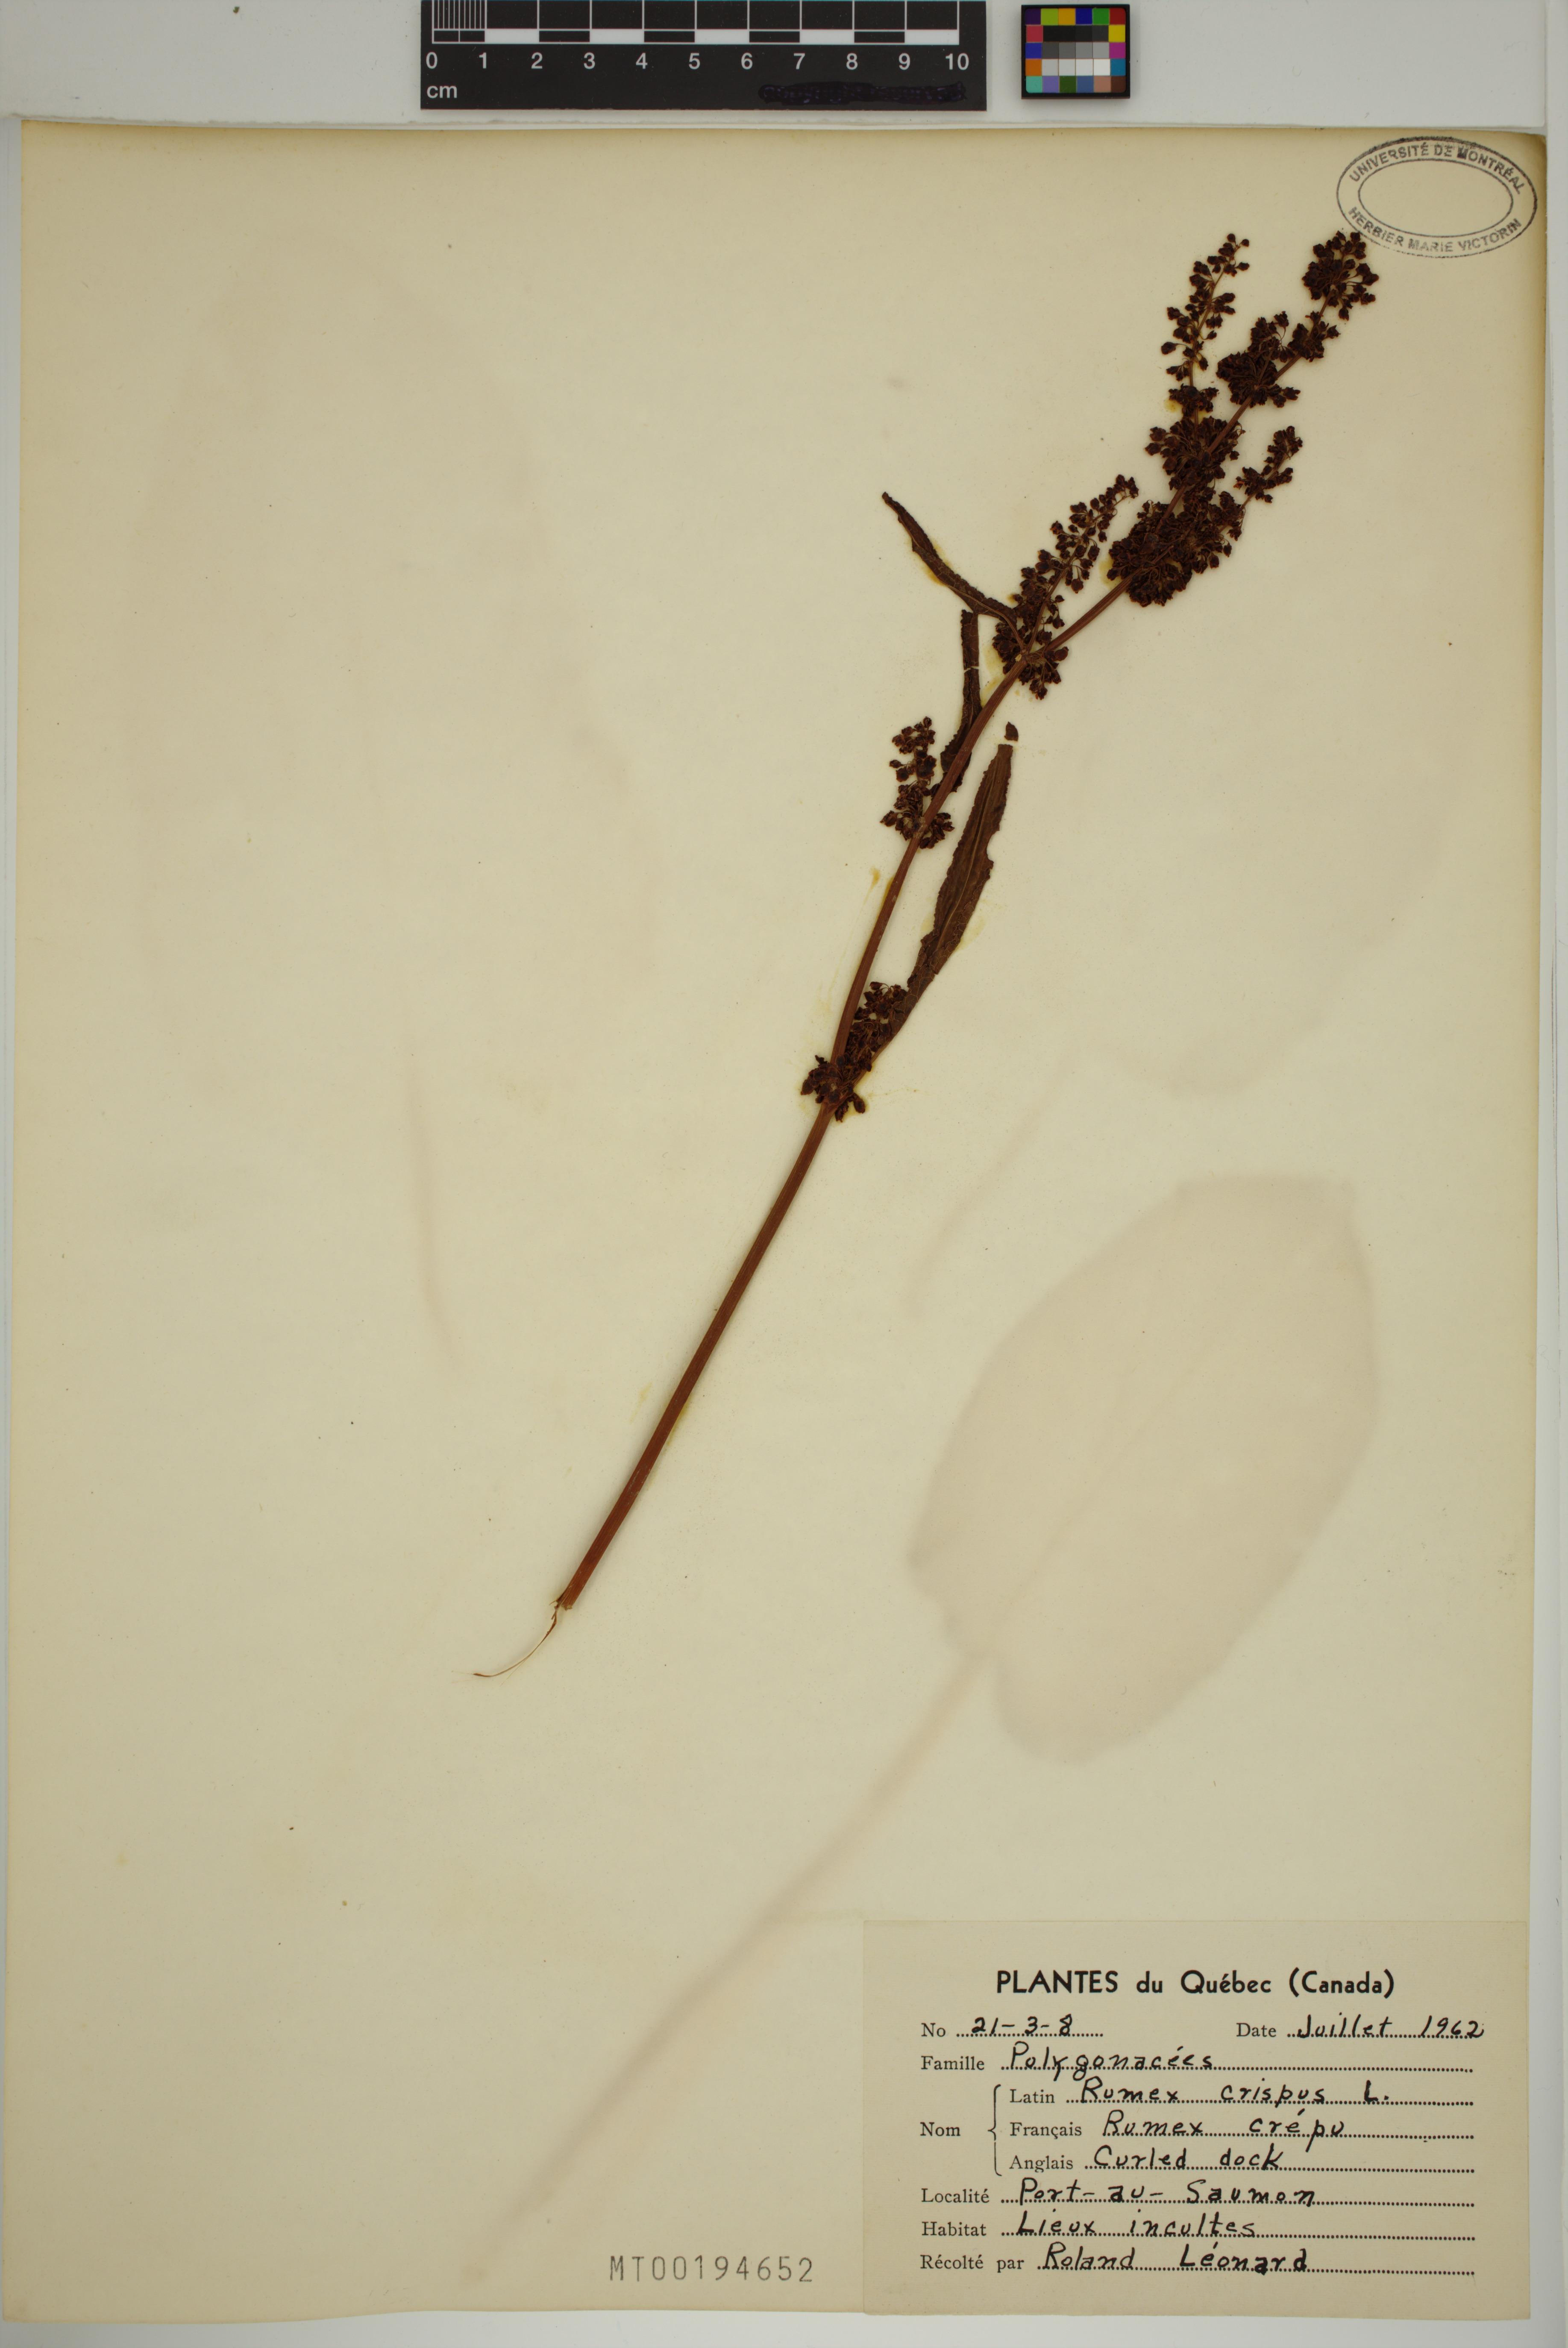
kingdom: Plantae
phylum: Tracheophyta
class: Magnoliopsida
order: Caryophyllales
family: Polygonaceae
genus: Rumex
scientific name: Rumex crispus
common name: Curled dock
